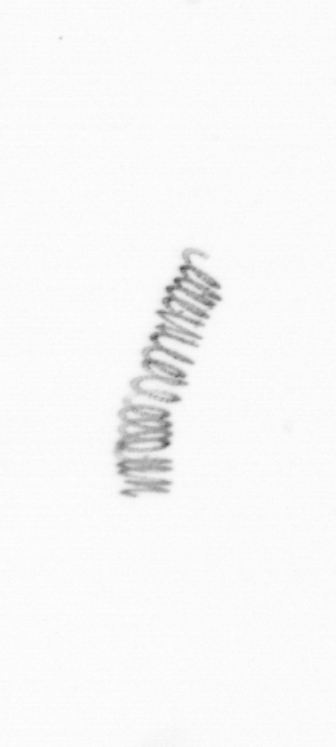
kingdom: Chromista
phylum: Ochrophyta
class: Bacillariophyceae
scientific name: Bacillariophyceae
